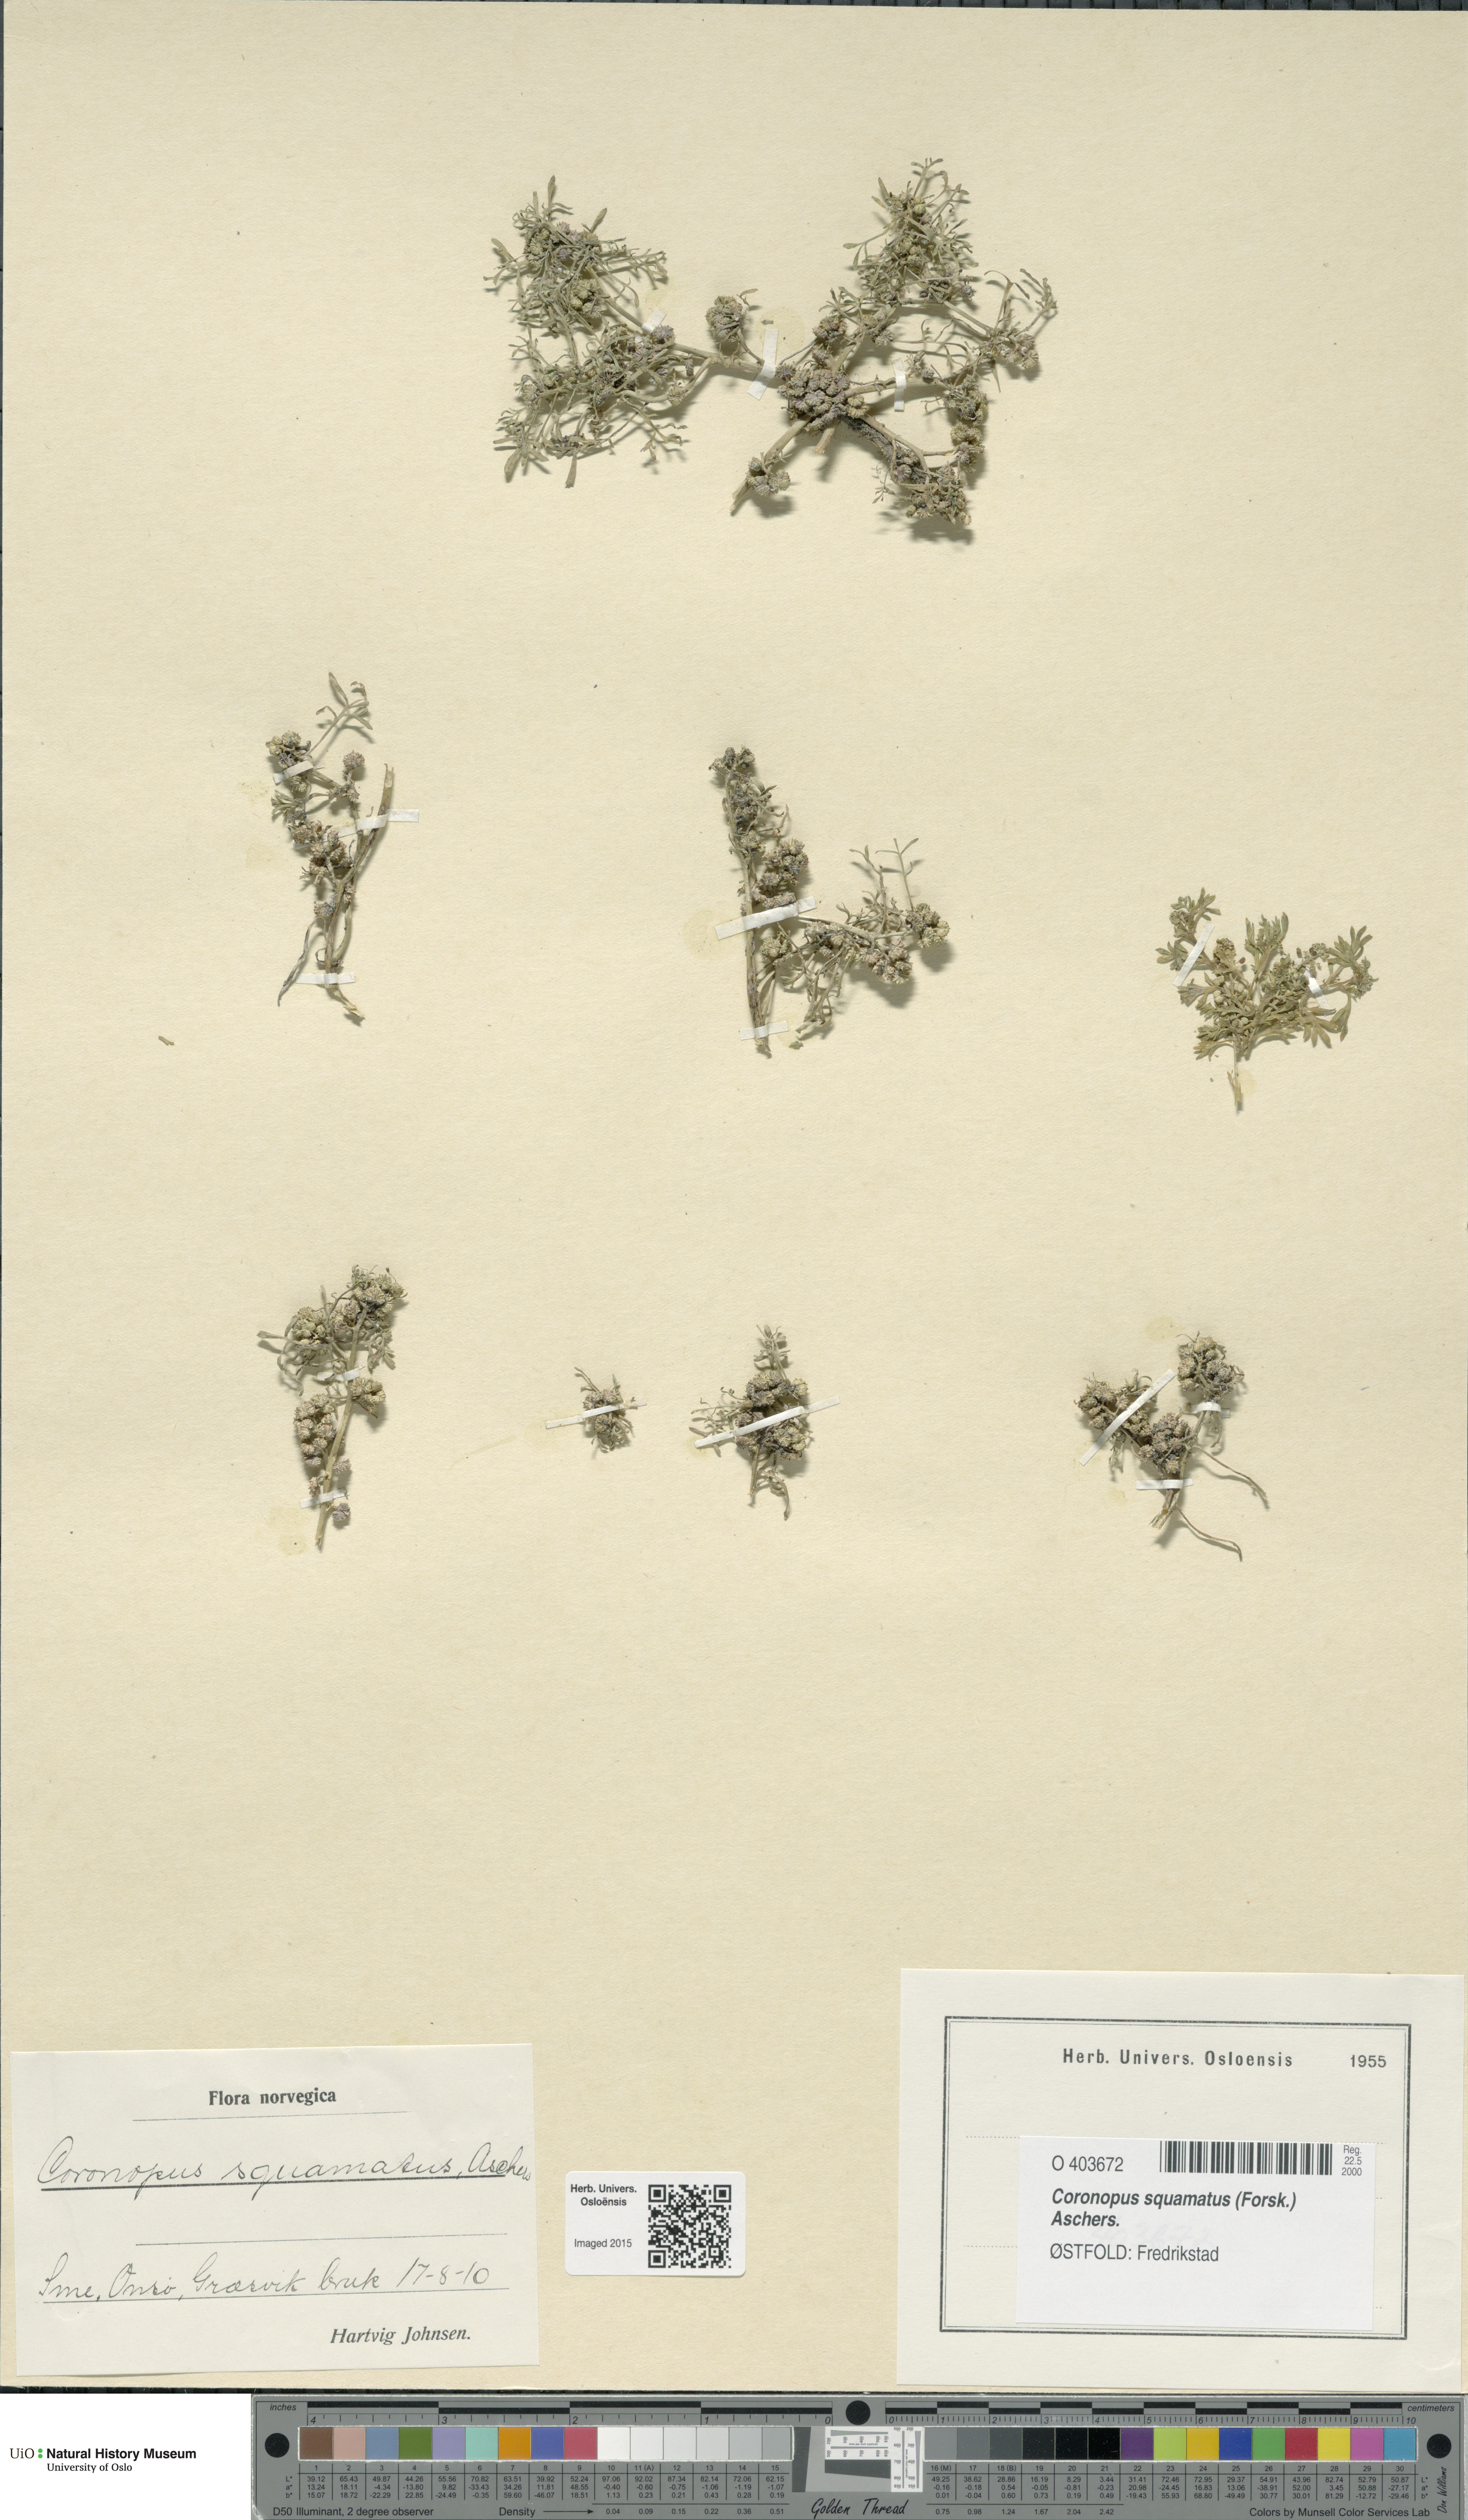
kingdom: Plantae
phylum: Tracheophyta
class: Magnoliopsida
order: Brassicales
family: Brassicaceae
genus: Lepidium
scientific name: Lepidium coronopus
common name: Greater swinecress
